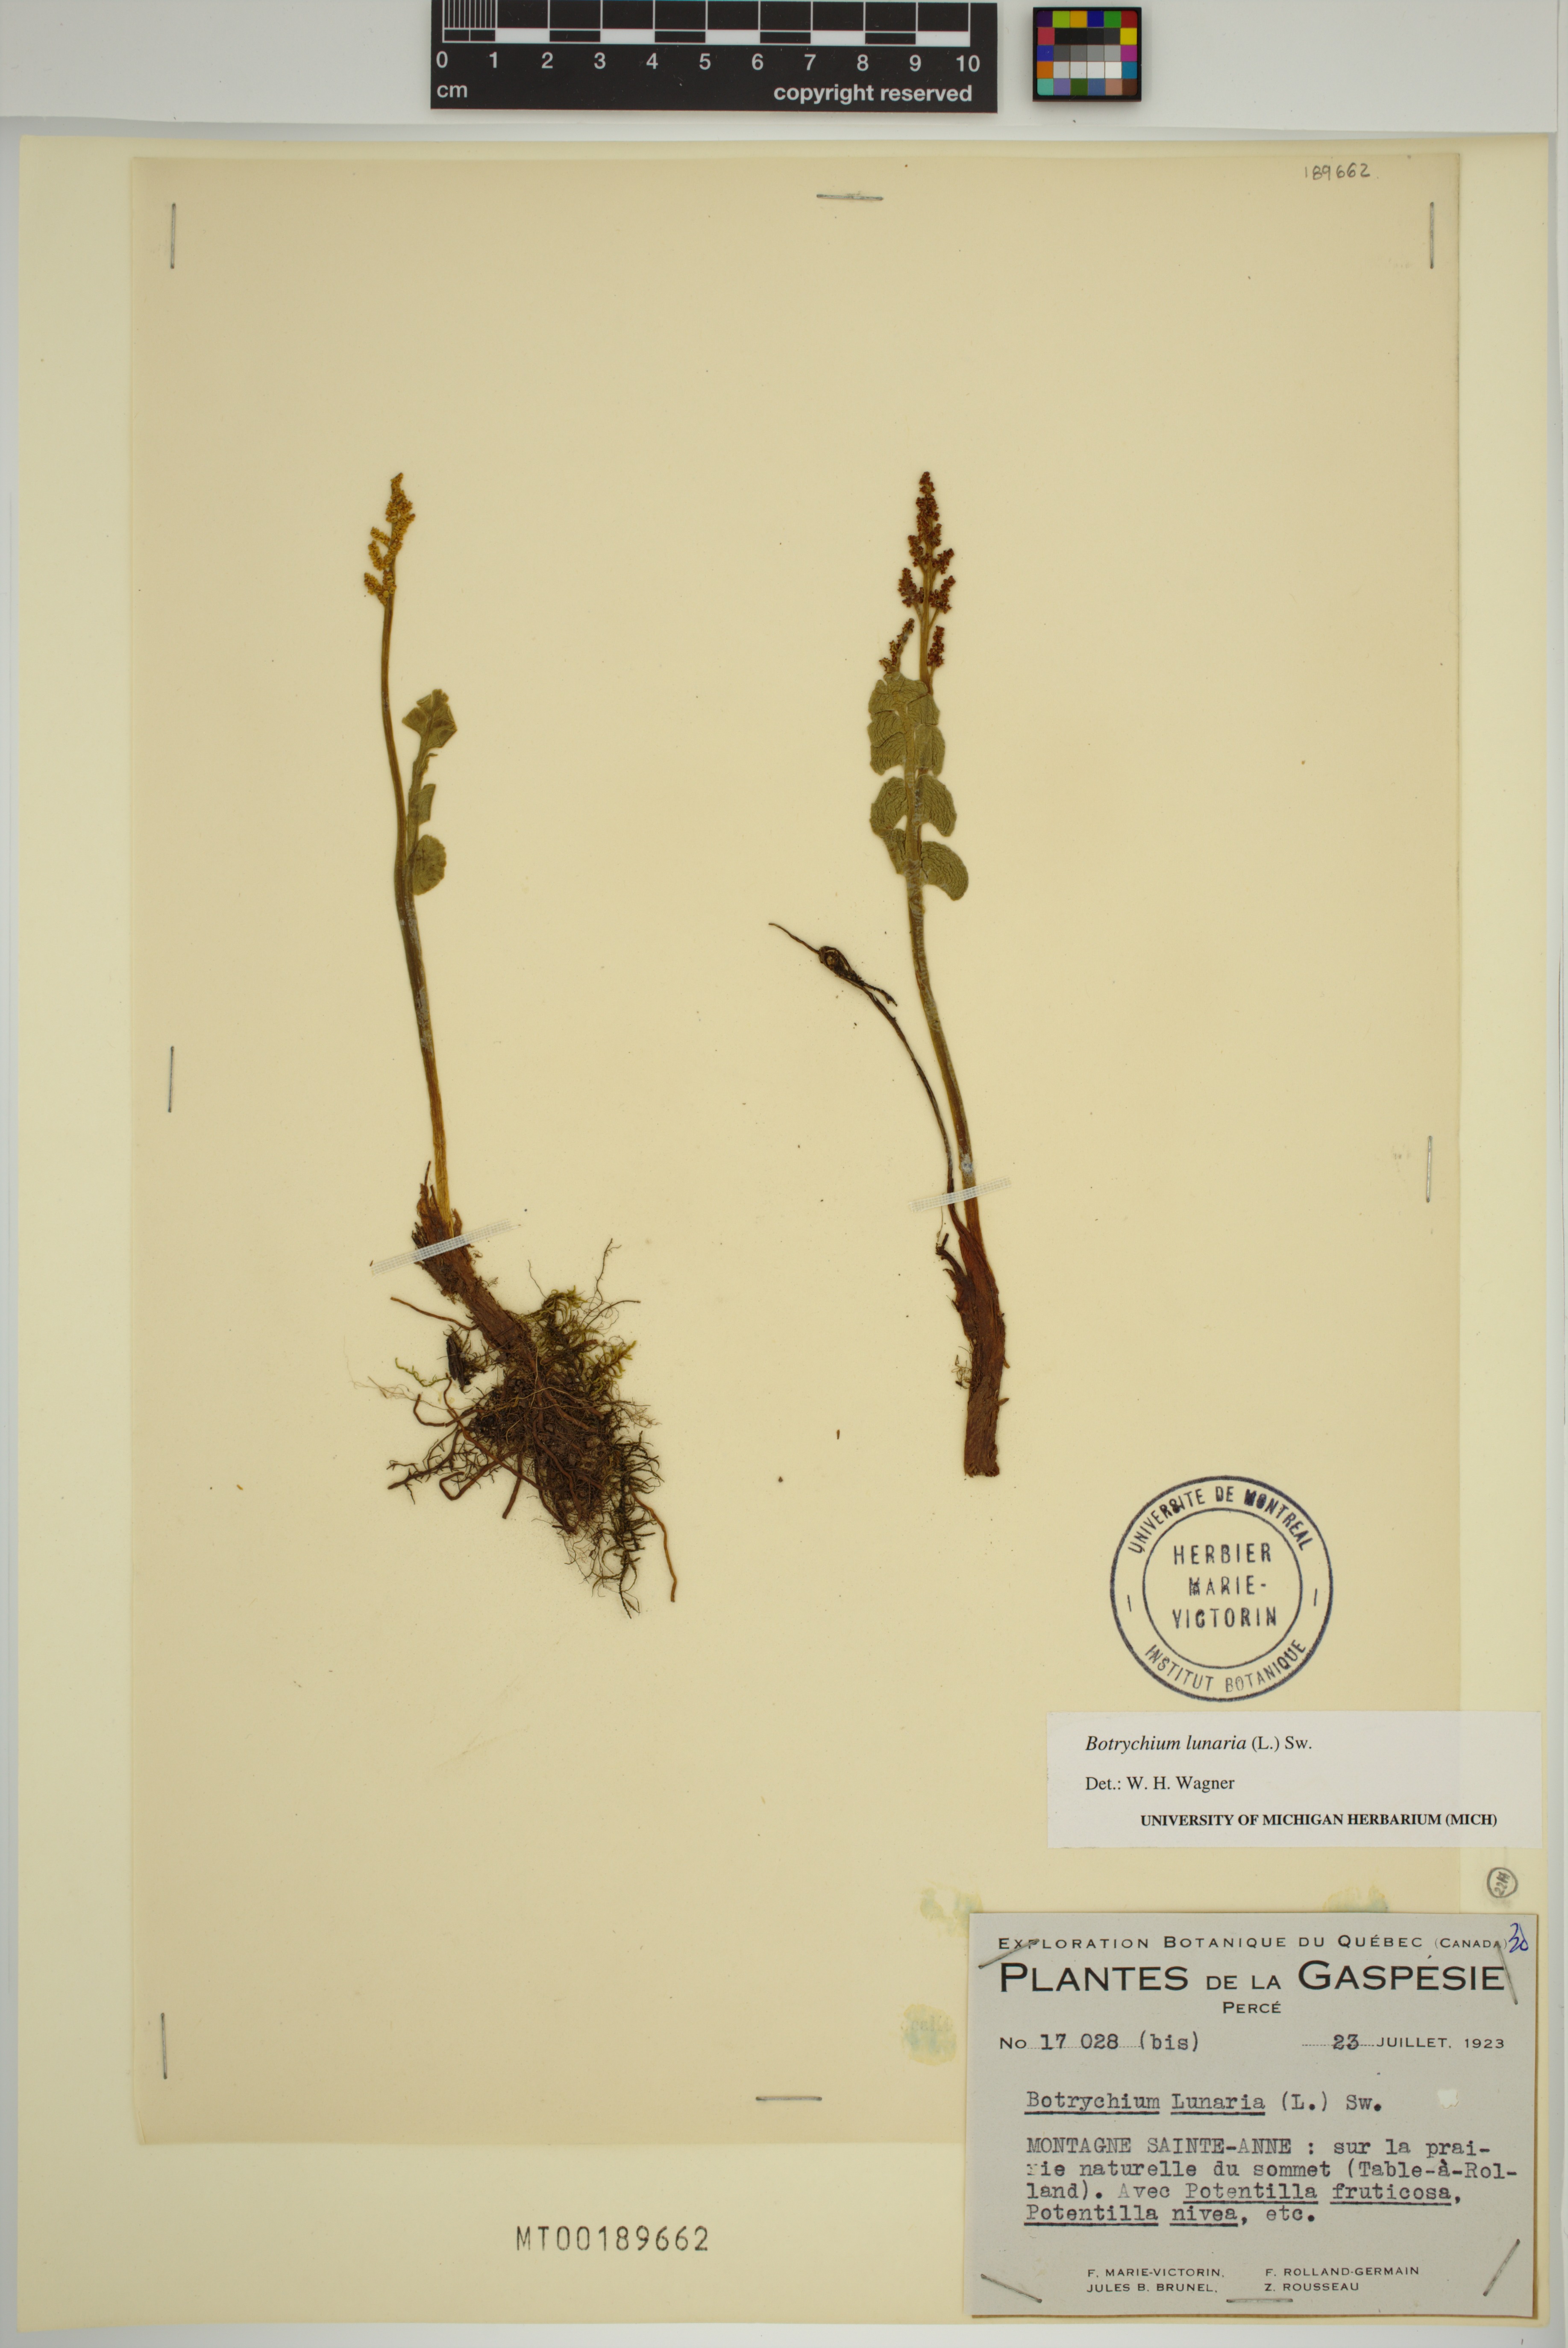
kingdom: Plantae
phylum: Tracheophyta
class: Polypodiopsida
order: Ophioglossales
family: Ophioglossaceae
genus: Botrychium
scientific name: Botrychium lunaria
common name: Moonwort
